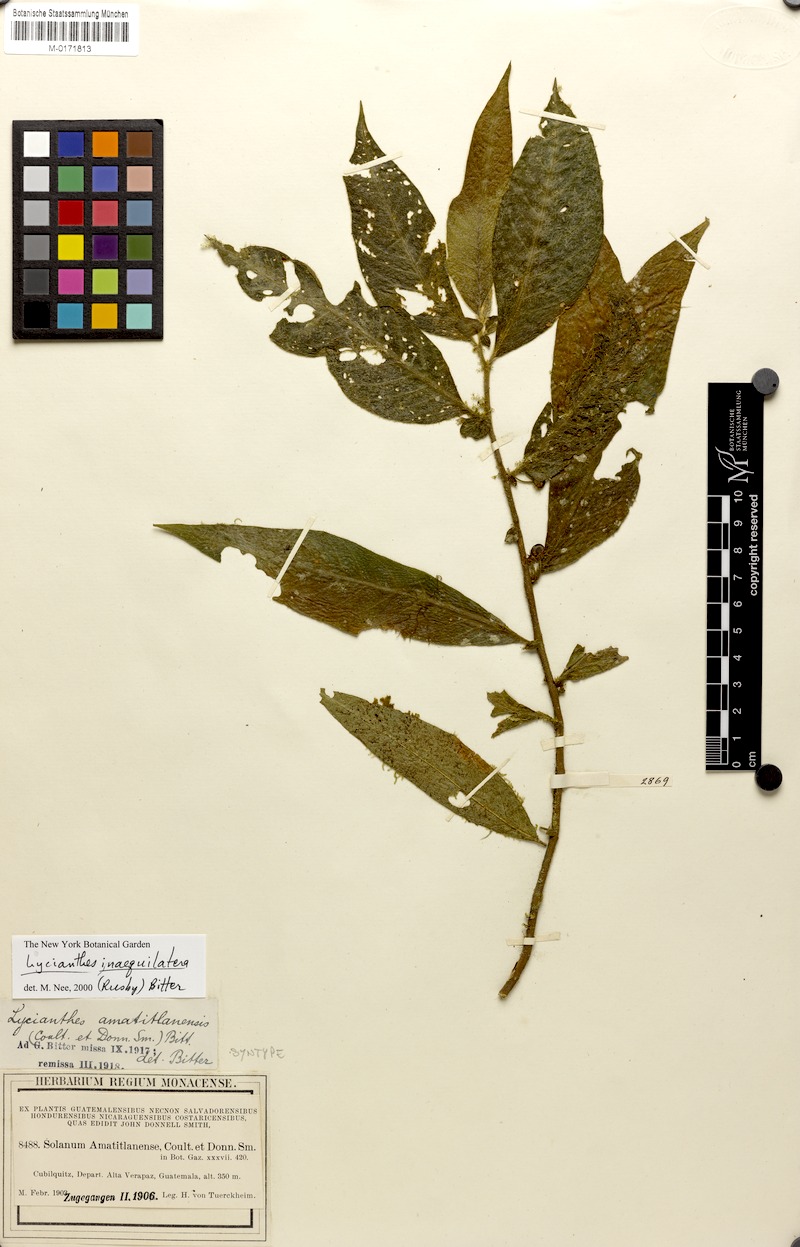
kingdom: Plantae
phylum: Tracheophyta
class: Magnoliopsida
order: Solanales
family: Solanaceae
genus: Lycianthes
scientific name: Lycianthes amatitlanensis
